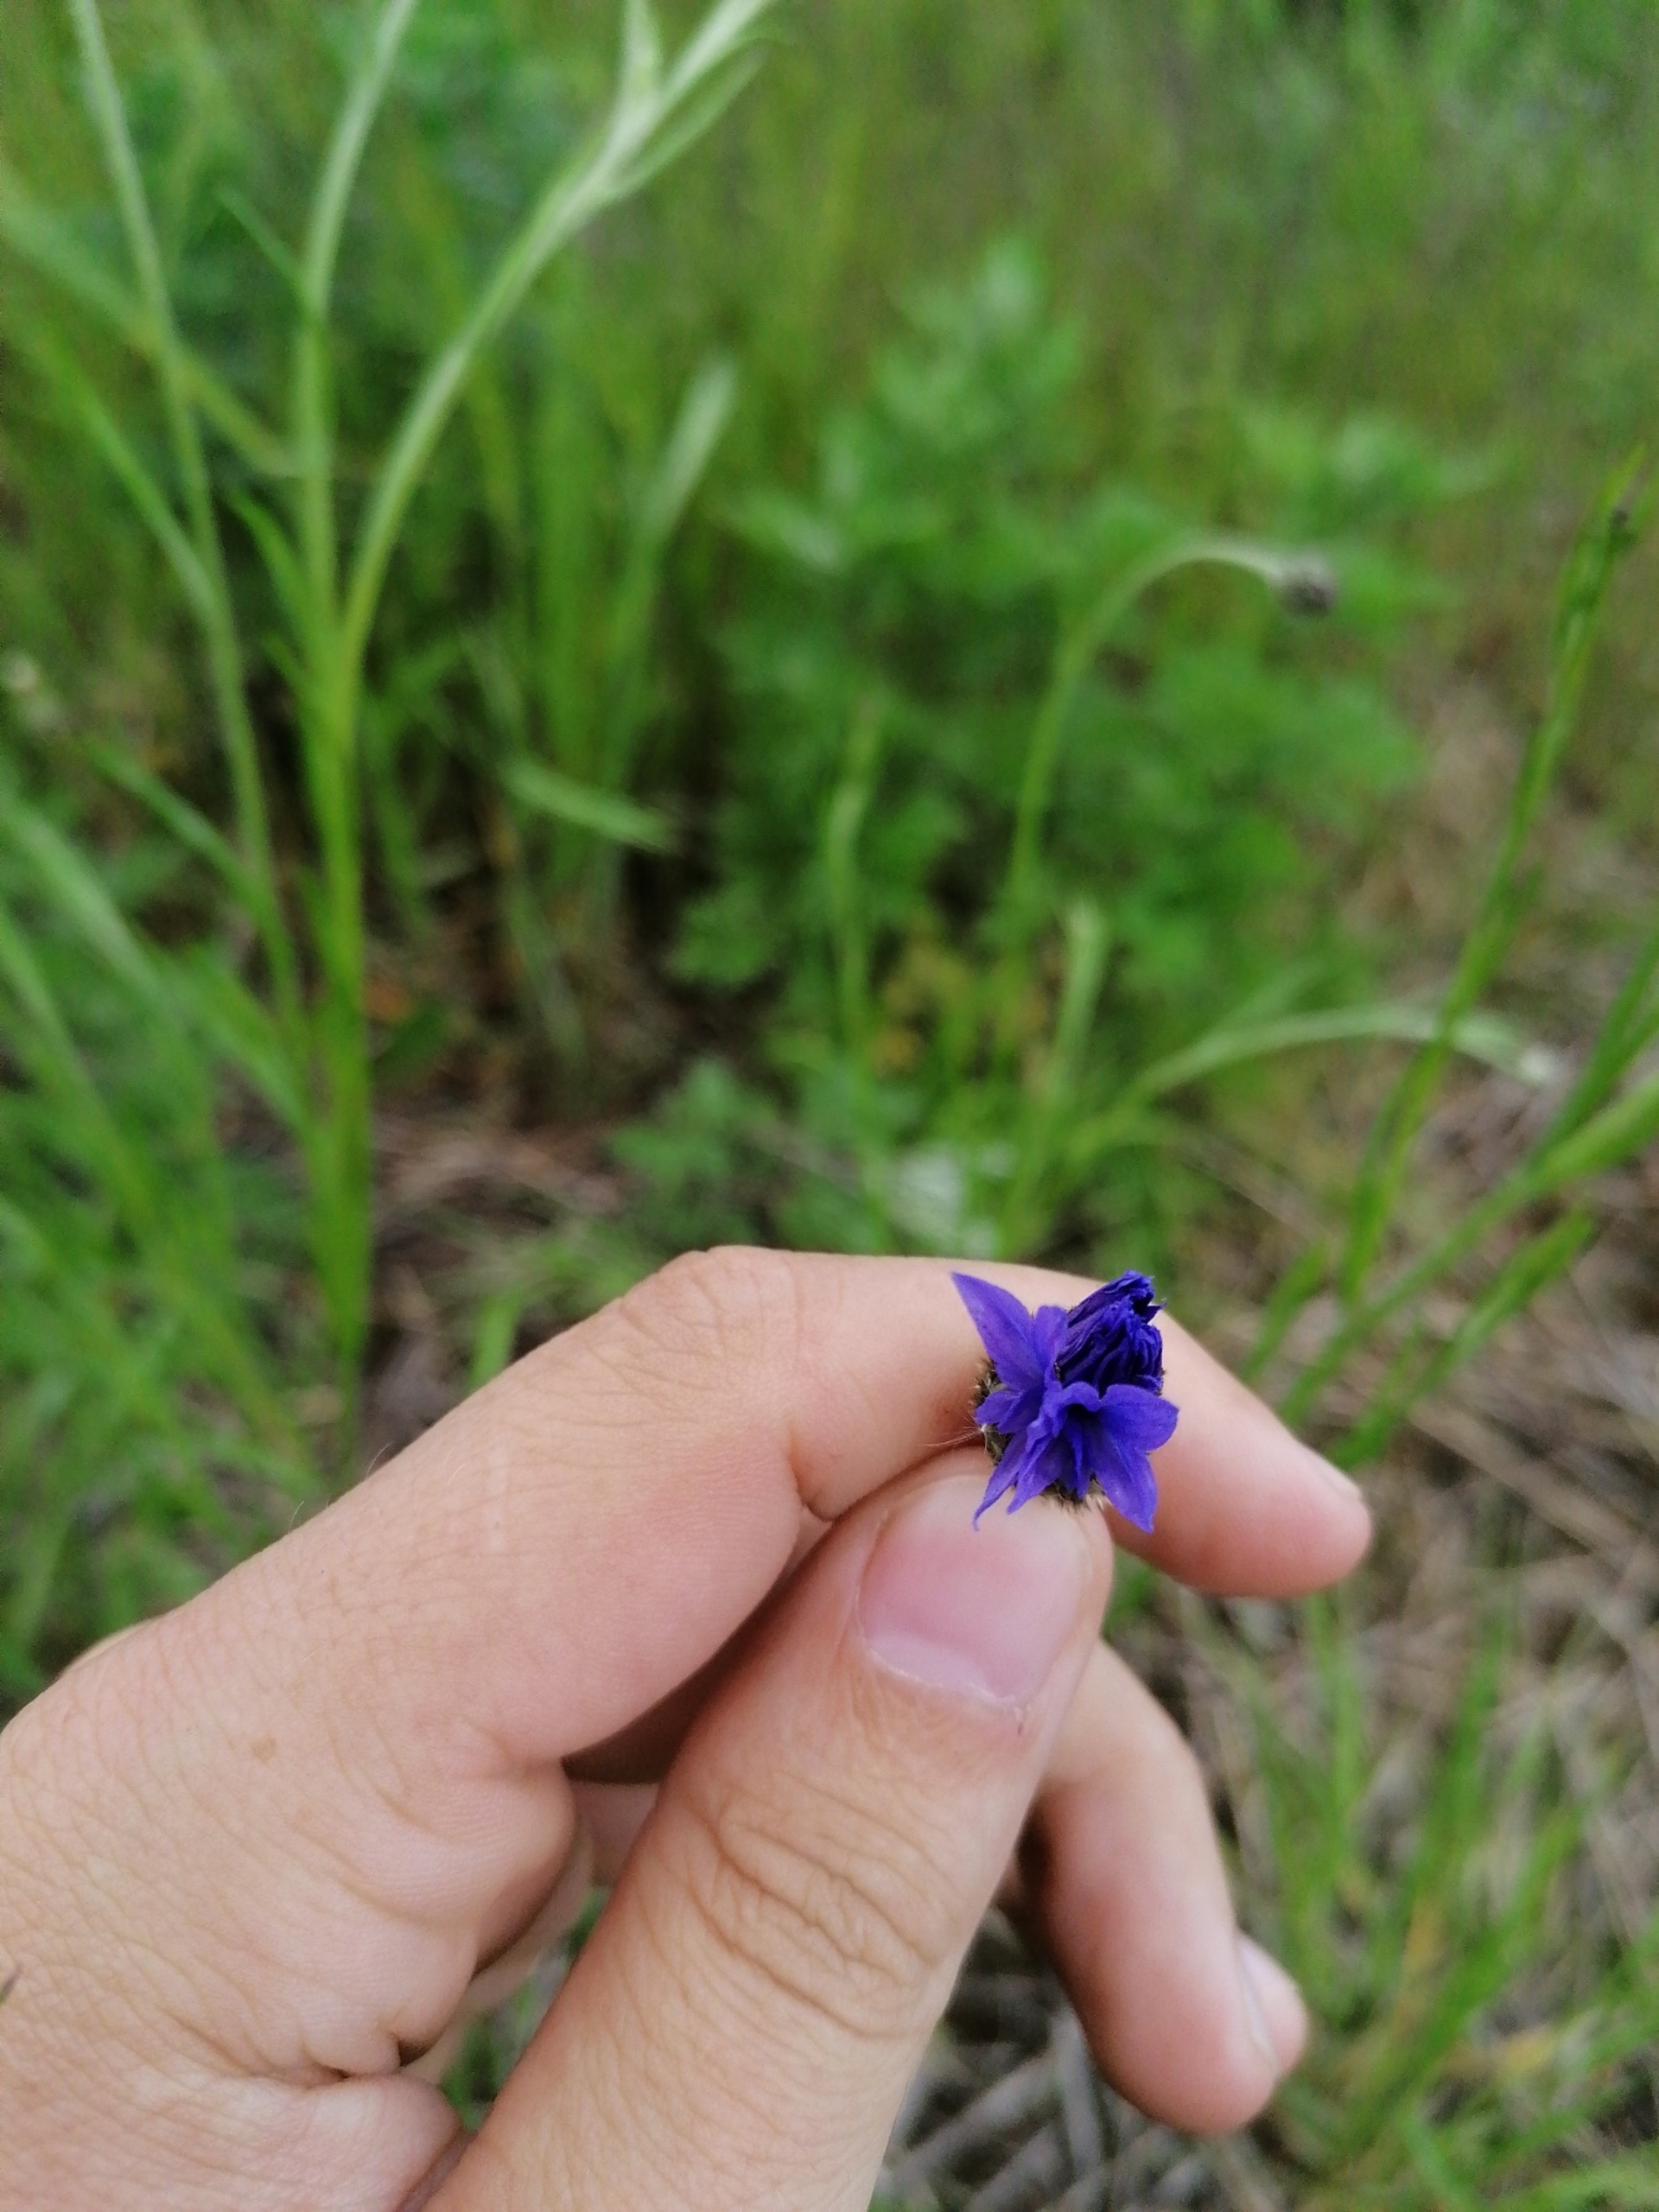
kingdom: Plantae
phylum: Tracheophyta
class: Magnoliopsida
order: Asterales
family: Asteraceae
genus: Centaurea
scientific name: Centaurea cyanus
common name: Kornblomst
